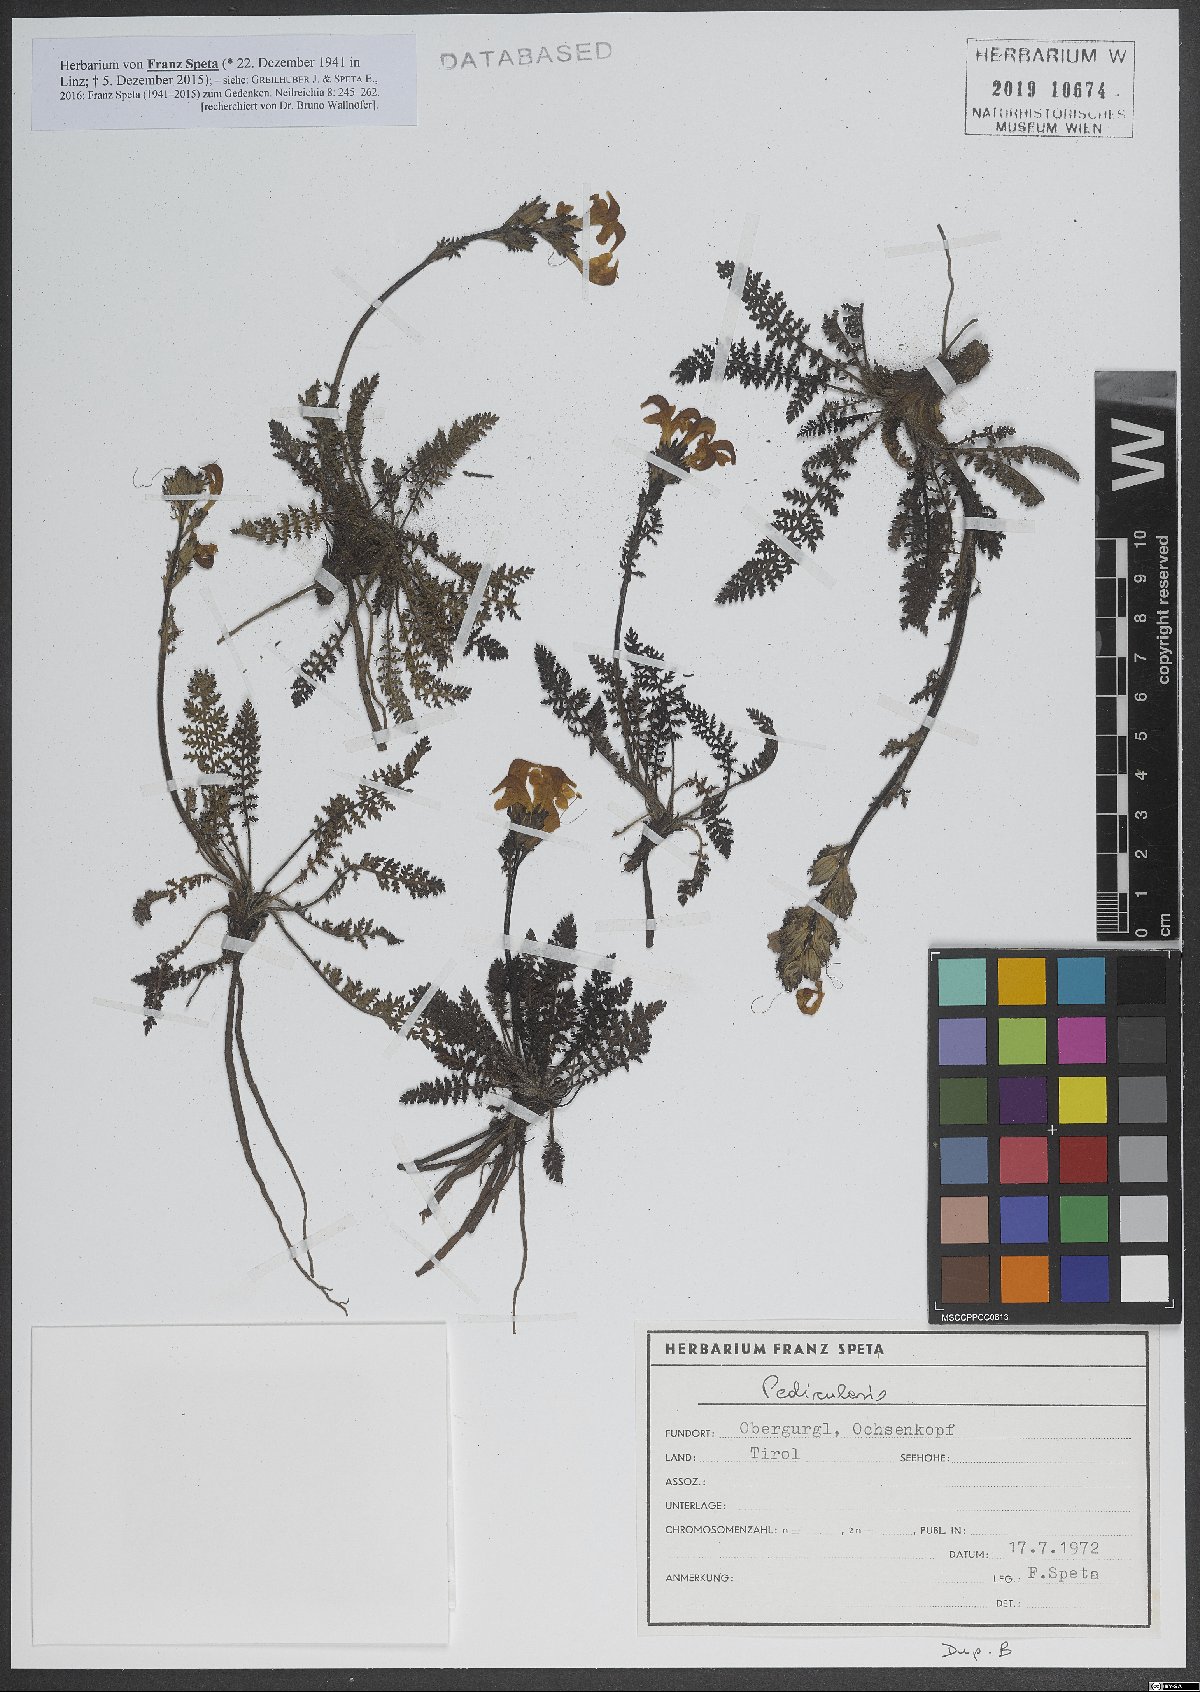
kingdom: Plantae
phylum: Tracheophyta
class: Magnoliopsida
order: Lamiales
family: Orobanchaceae
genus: Pedicularis
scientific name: Pedicularis
